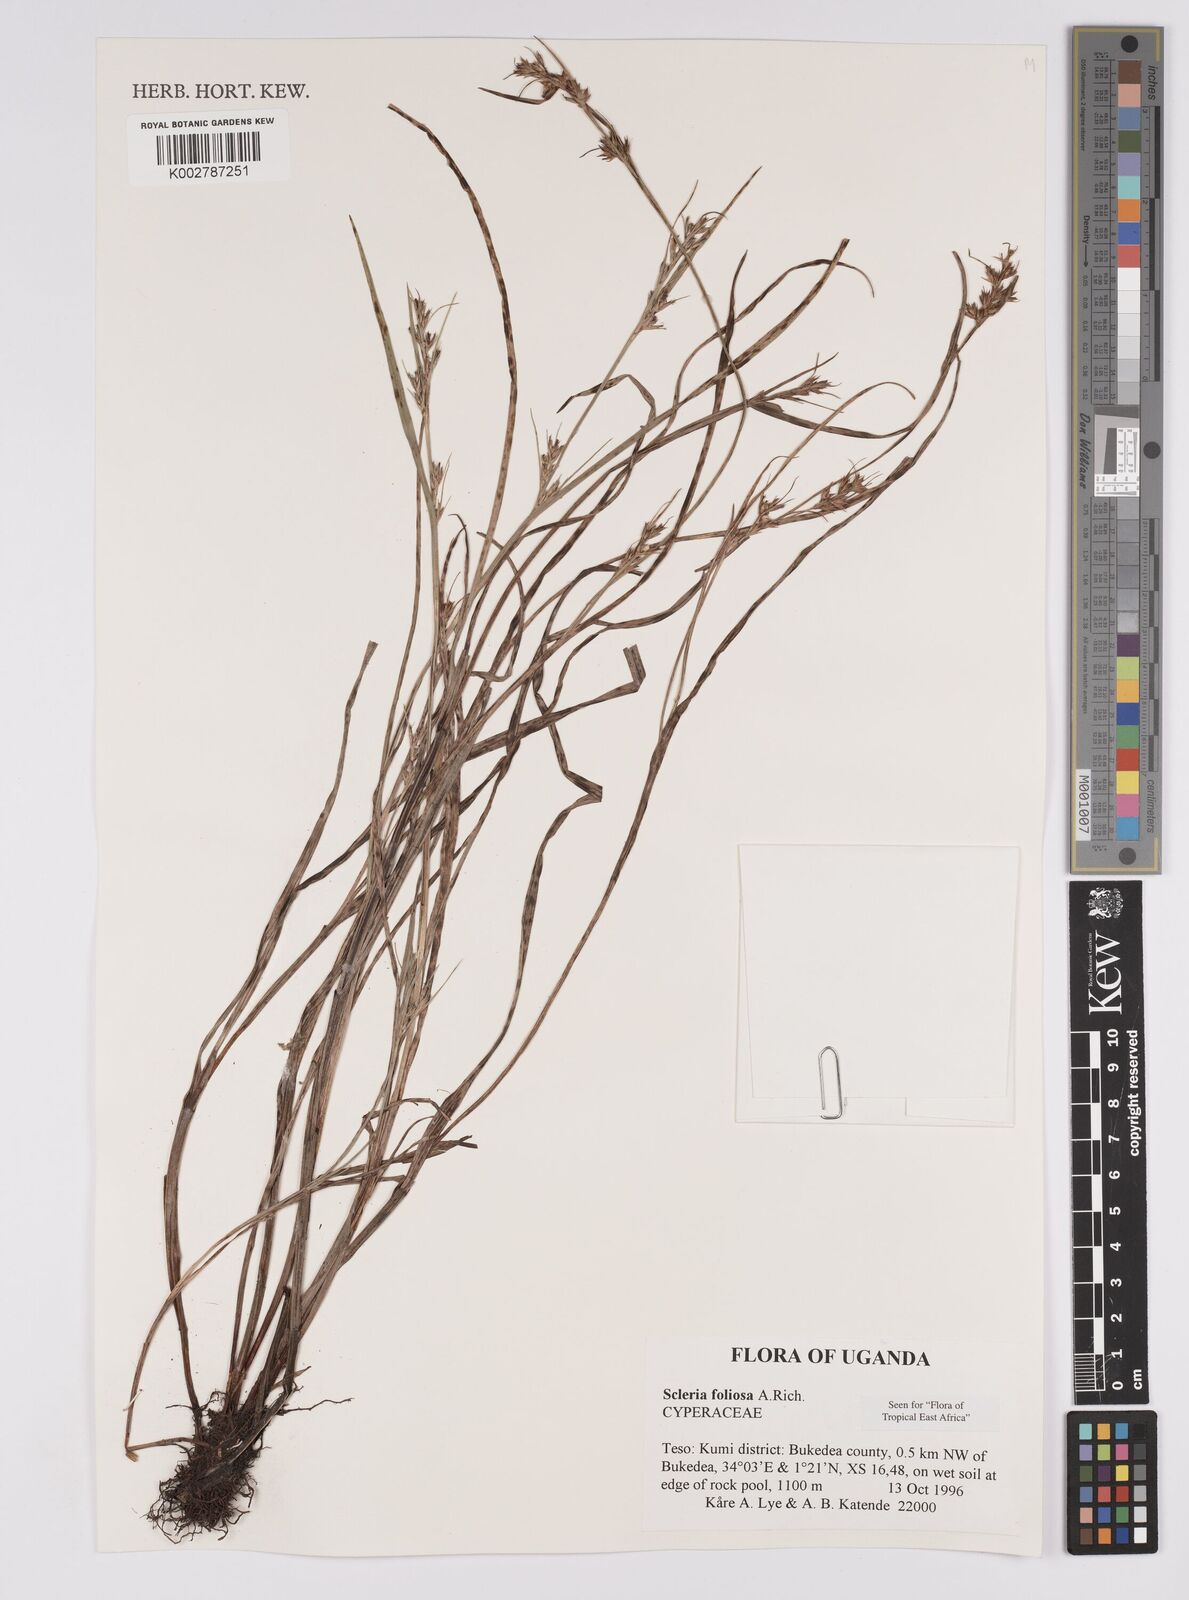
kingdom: Plantae
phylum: Tracheophyta
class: Liliopsida
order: Poales
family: Cyperaceae
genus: Scleria
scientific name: Scleria foliosa
